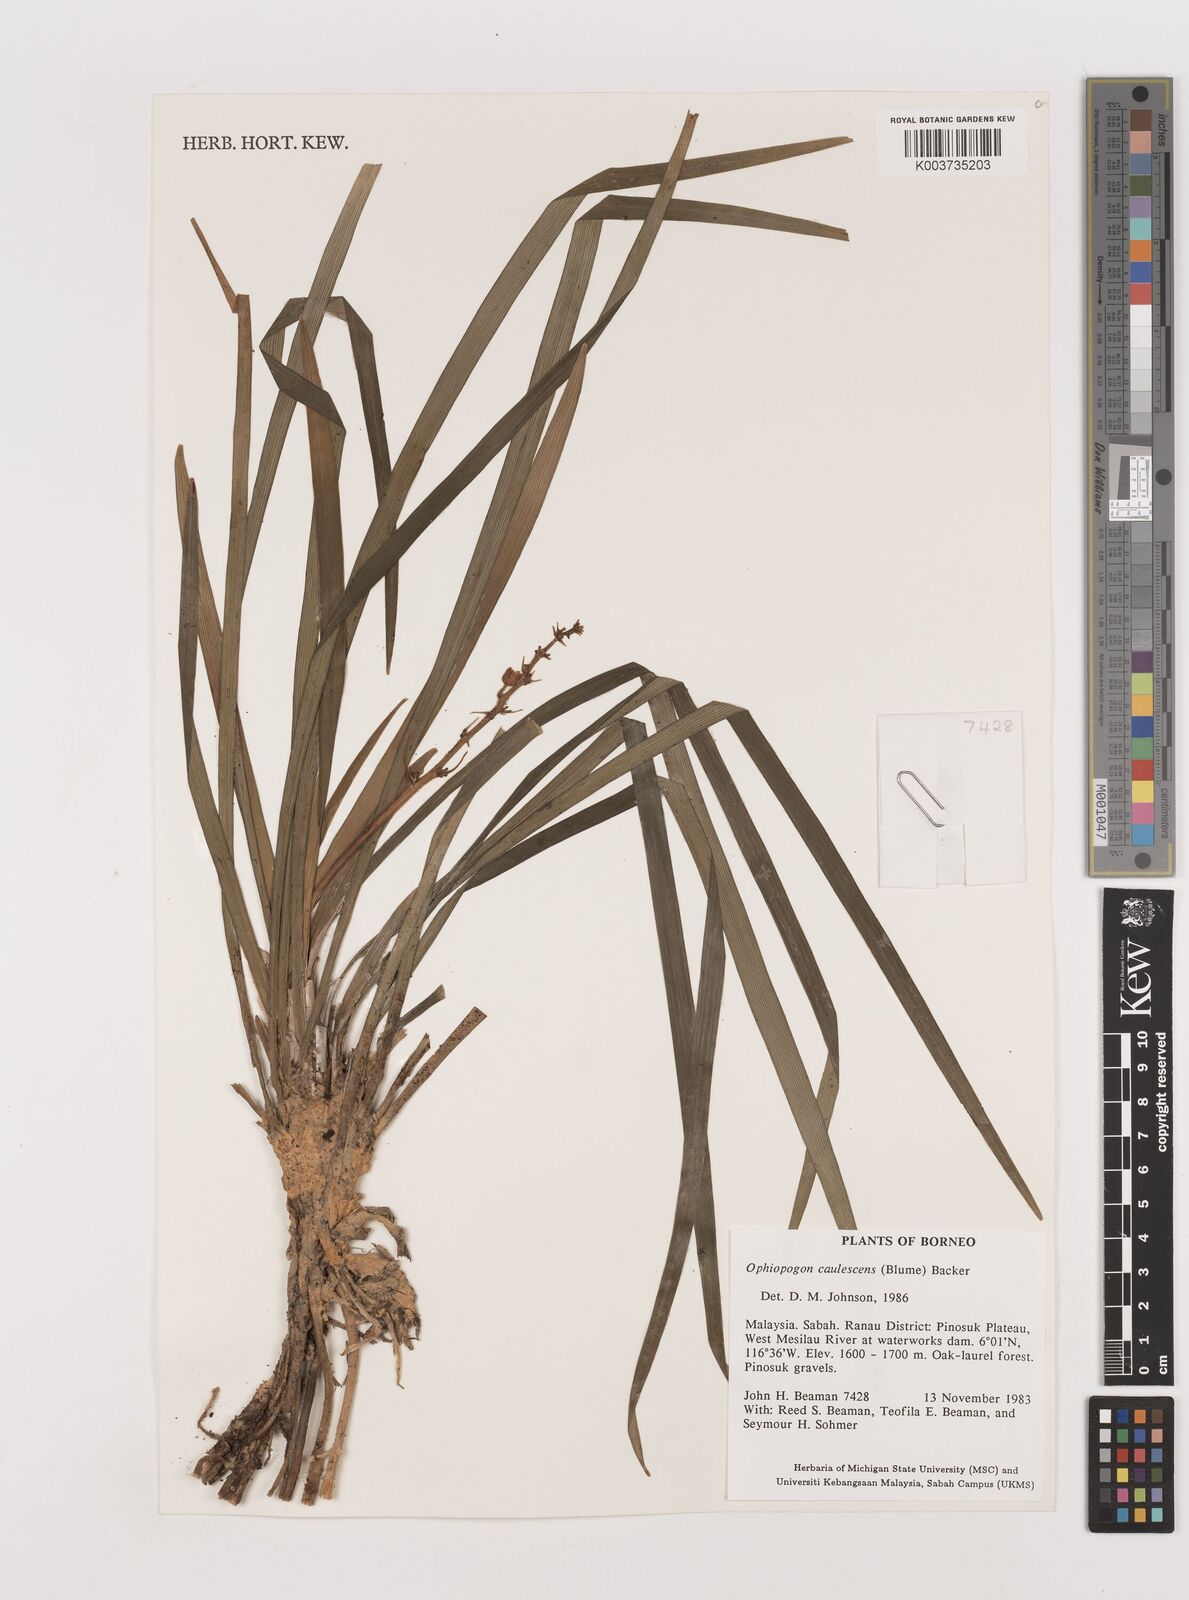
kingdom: Plantae
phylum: Tracheophyta
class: Liliopsida
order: Asparagales
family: Asparagaceae
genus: Ophiopogon
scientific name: Ophiopogon caulescens
